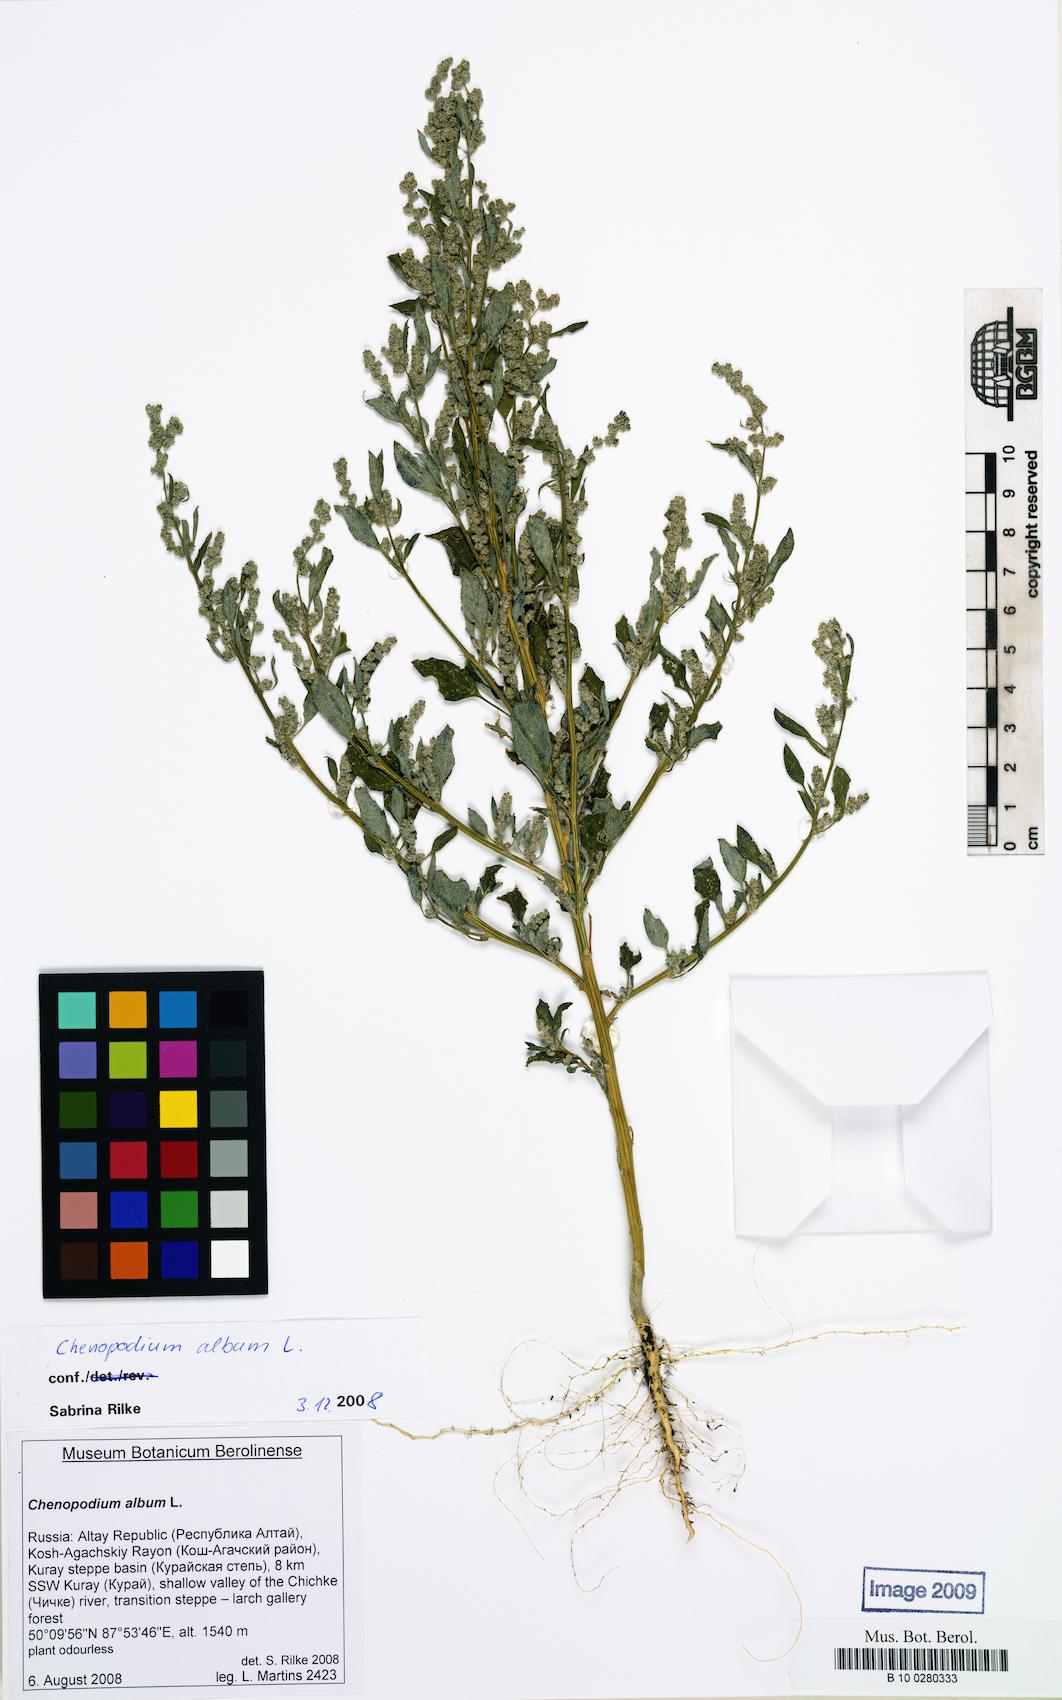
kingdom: Plantae
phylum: Tracheophyta
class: Magnoliopsida
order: Caryophyllales
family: Amaranthaceae
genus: Chenopodium
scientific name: Chenopodium album
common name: Fat-hen
